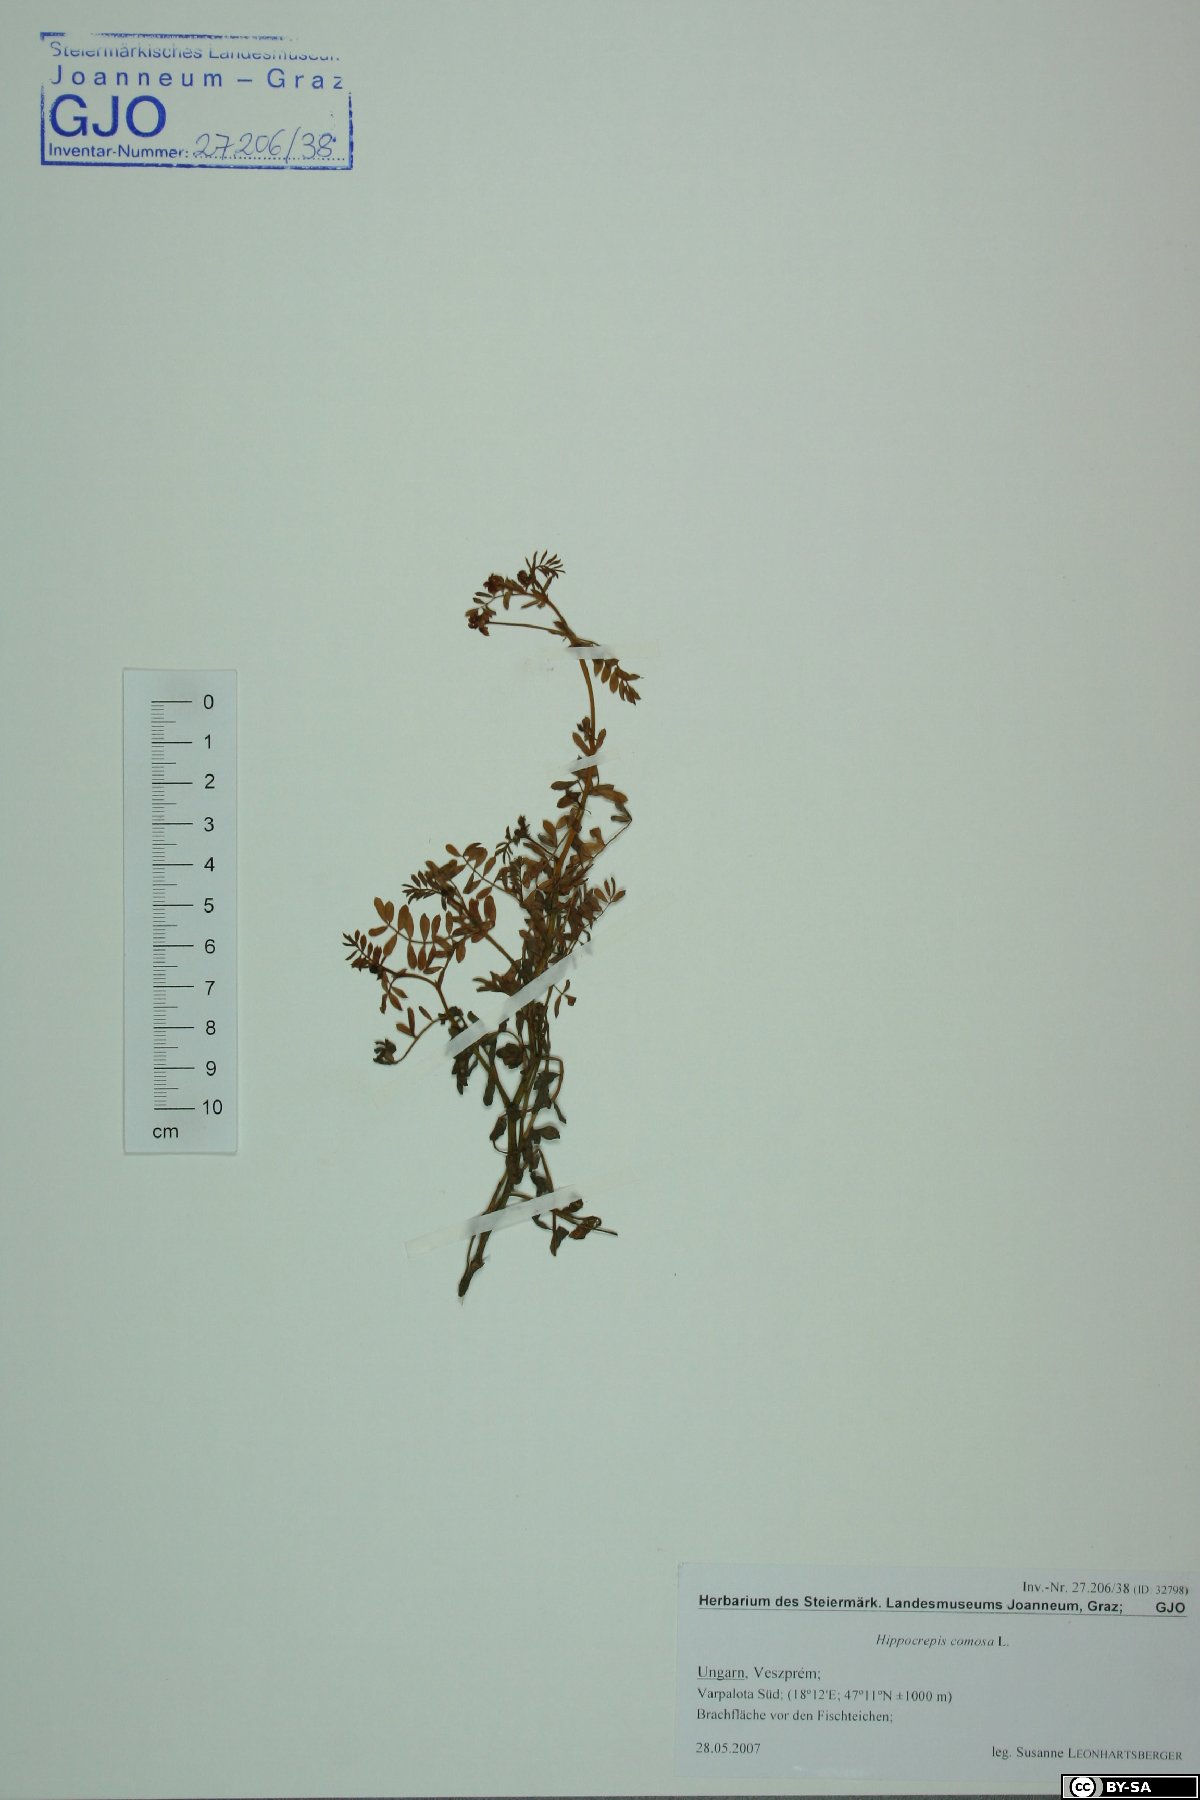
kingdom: Plantae
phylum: Tracheophyta
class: Magnoliopsida
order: Fabales
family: Fabaceae
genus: Hippocrepis
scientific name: Hippocrepis comosa
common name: Horseshoe vetch
